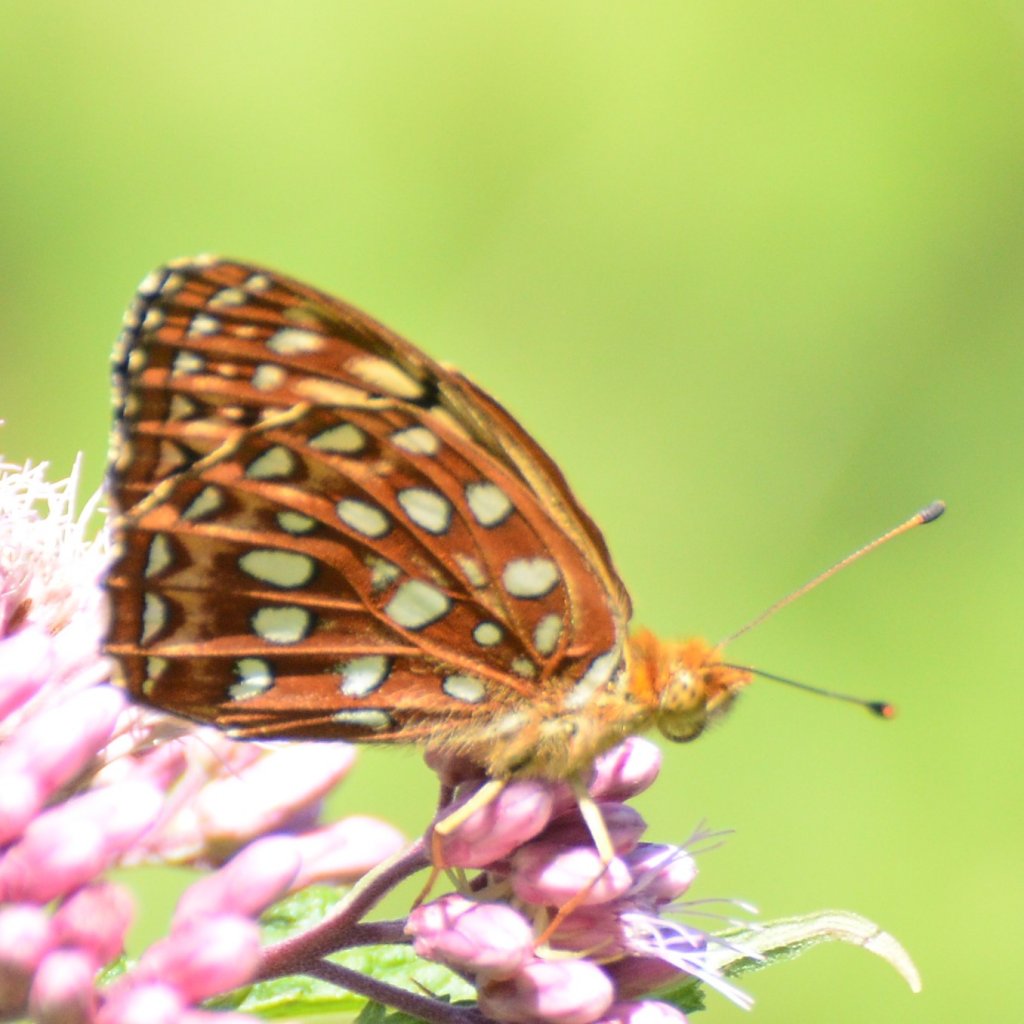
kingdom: Animalia
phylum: Arthropoda
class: Insecta
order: Lepidoptera
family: Nymphalidae
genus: Speyeria
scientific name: Speyeria aphrodite
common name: Aphrodite Fritillary
